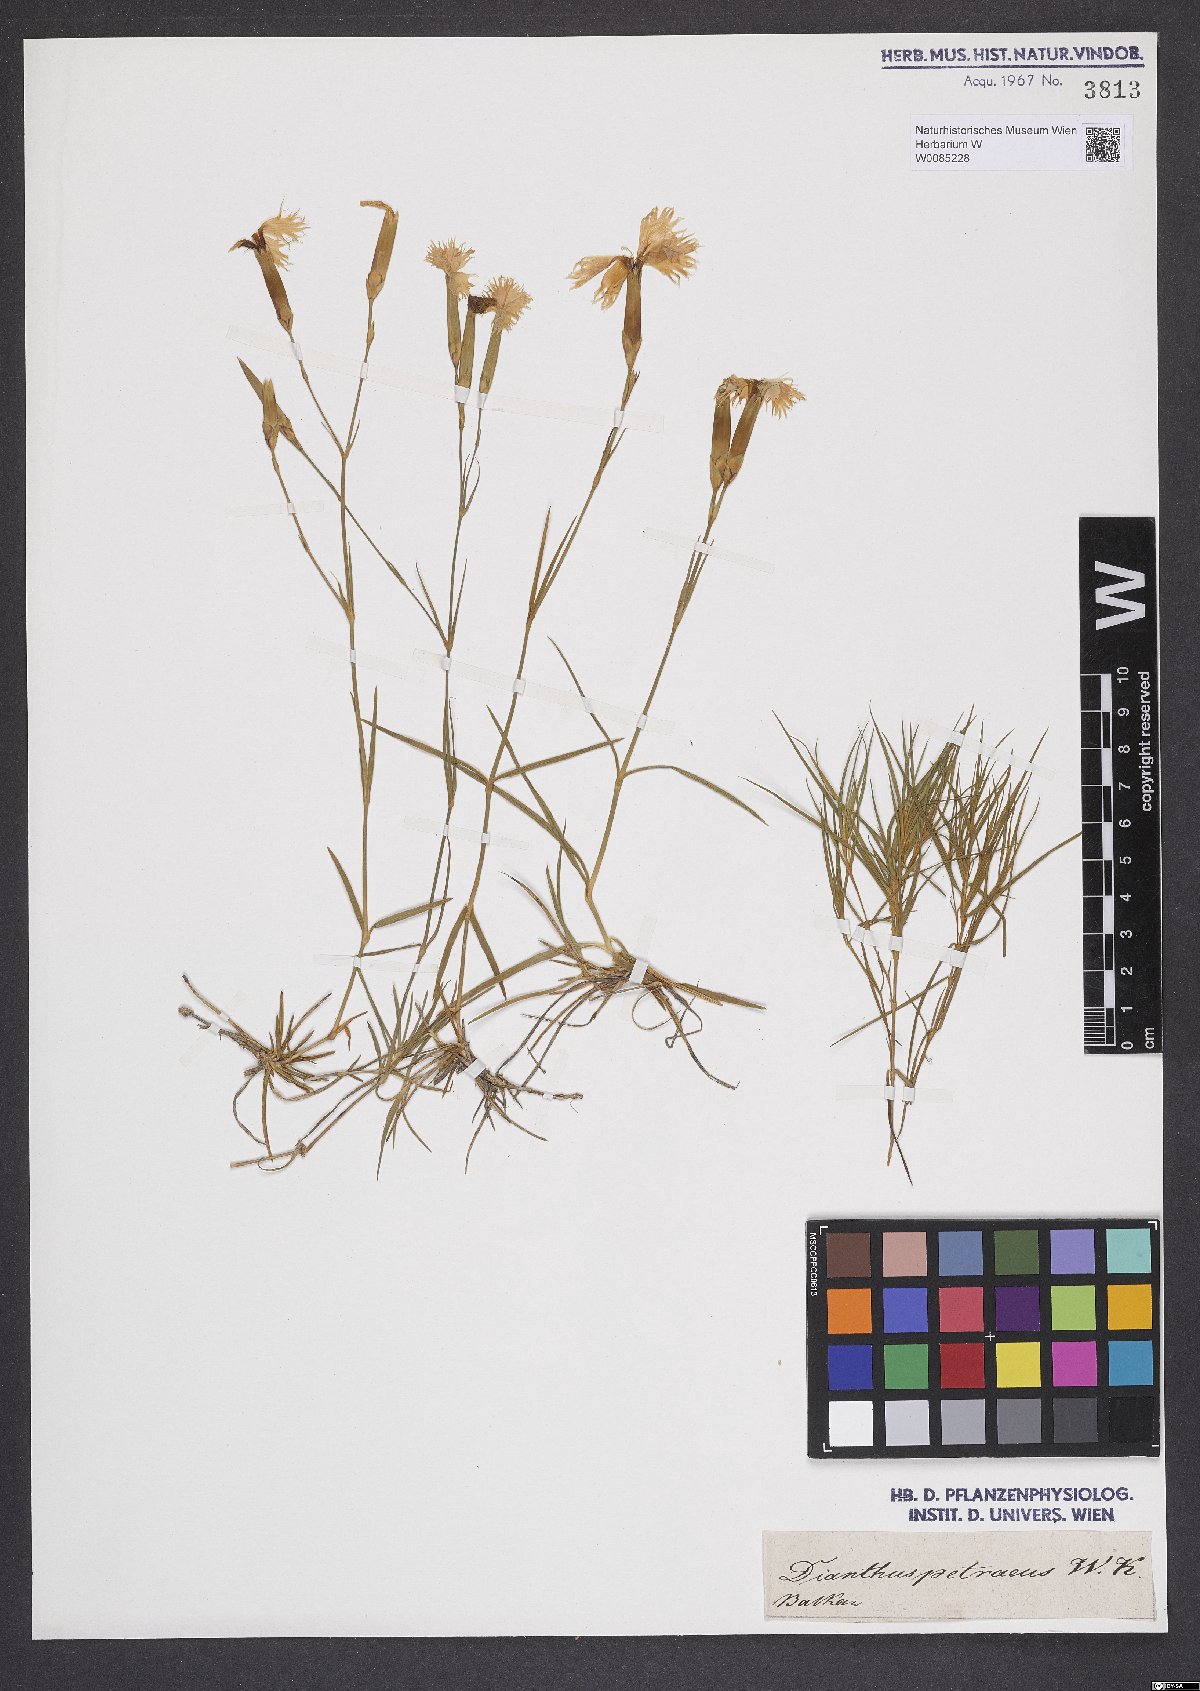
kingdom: Plantae
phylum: Tracheophyta
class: Magnoliopsida
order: Caryophyllales
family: Caryophyllaceae
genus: Dianthus
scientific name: Dianthus petraeus
